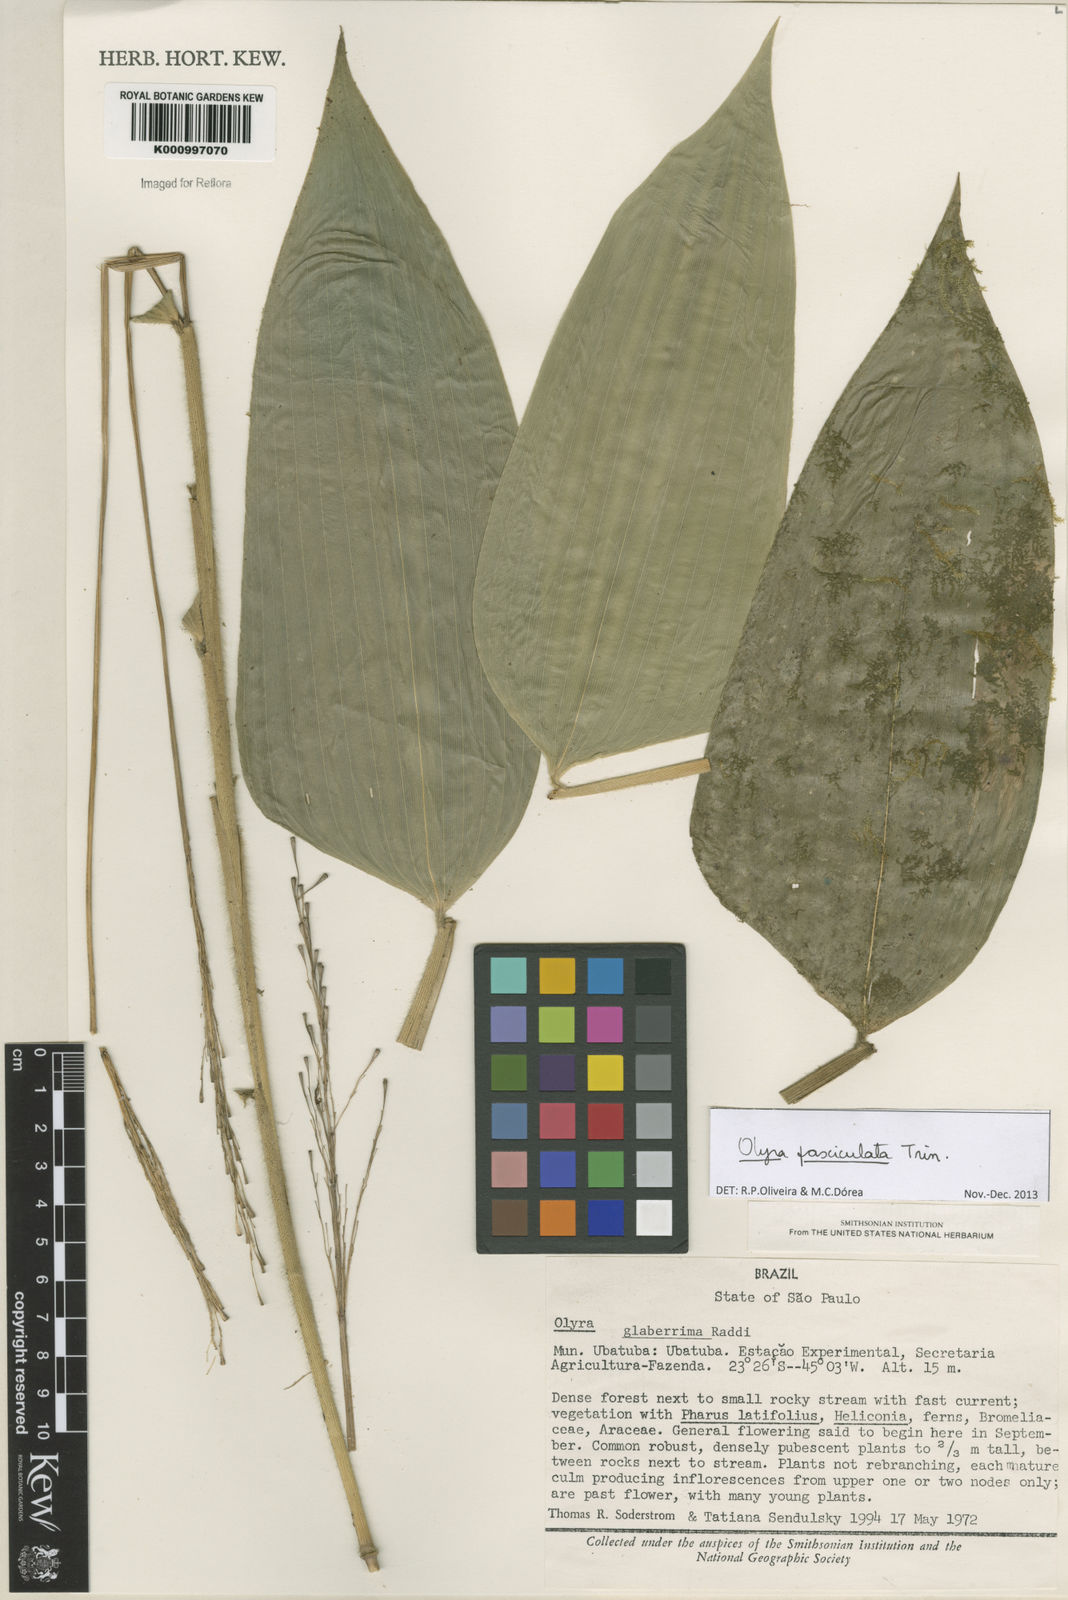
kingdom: Plantae
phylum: Tracheophyta
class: Liliopsida
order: Poales
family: Poaceae
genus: Olyra
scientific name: Olyra fasciculata
